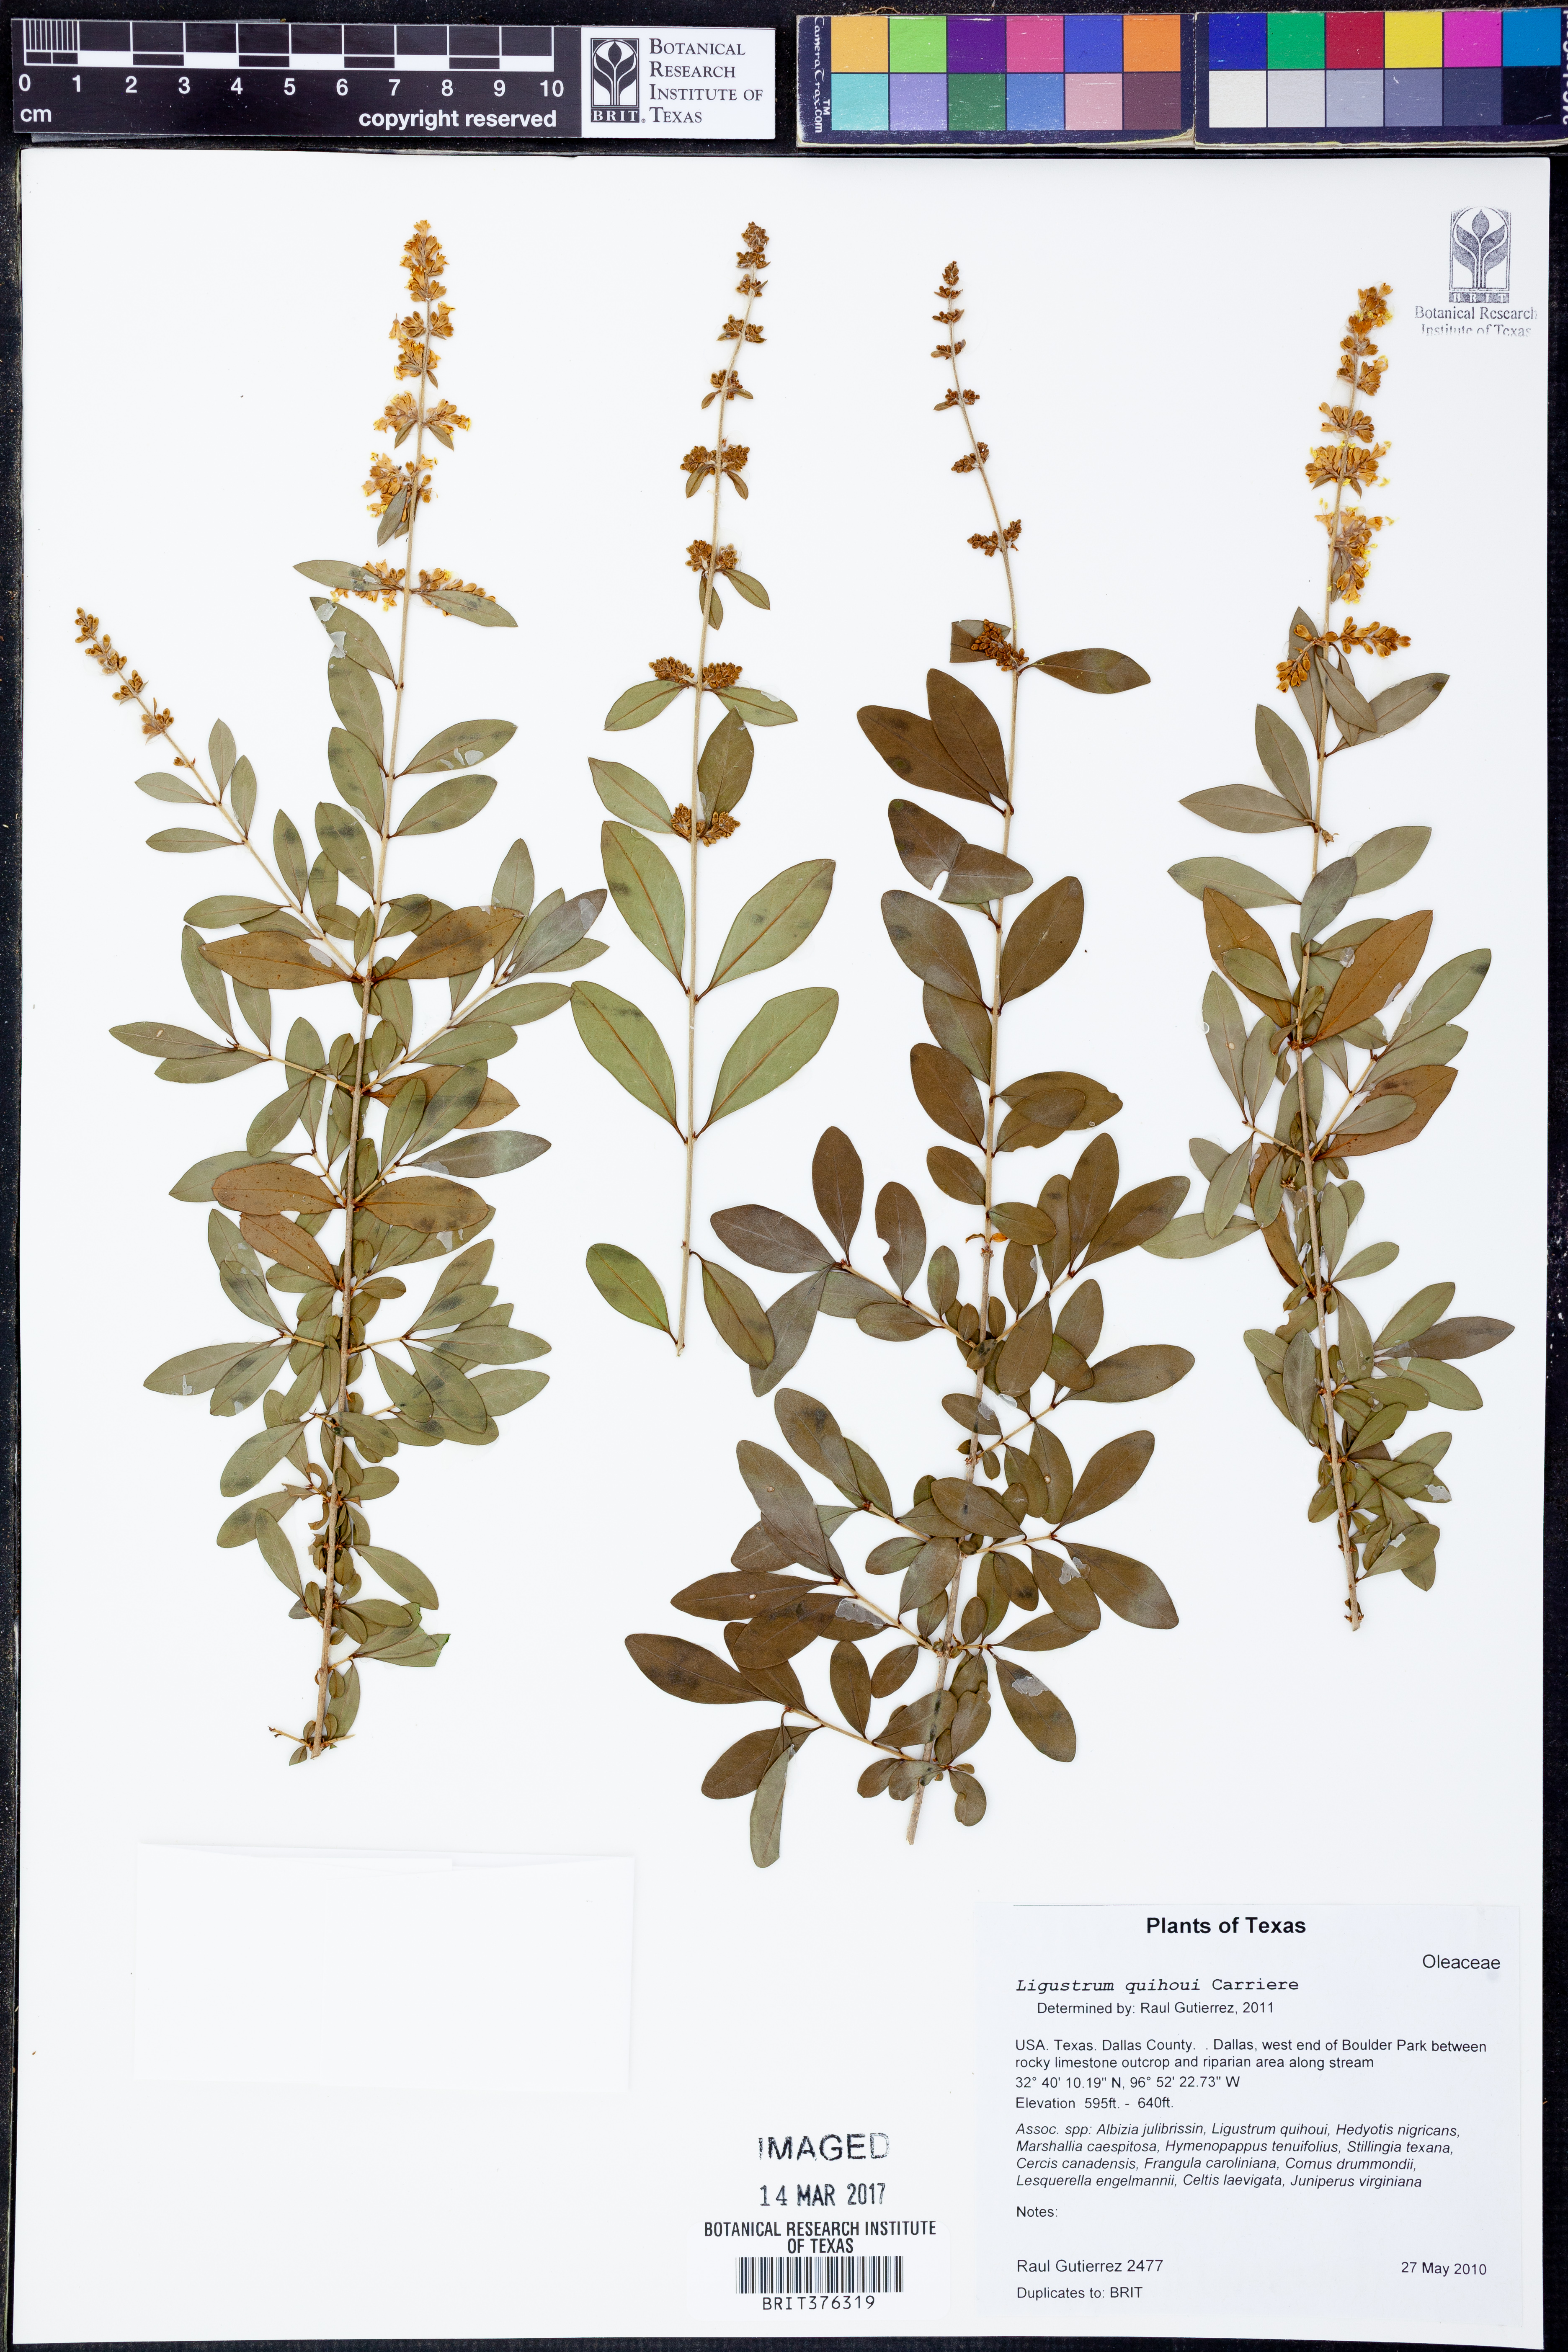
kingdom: Plantae
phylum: Tracheophyta
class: Magnoliopsida
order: Lamiales
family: Oleaceae
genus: Ligustrum
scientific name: Ligustrum quihoui
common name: Waxyleaf privet
